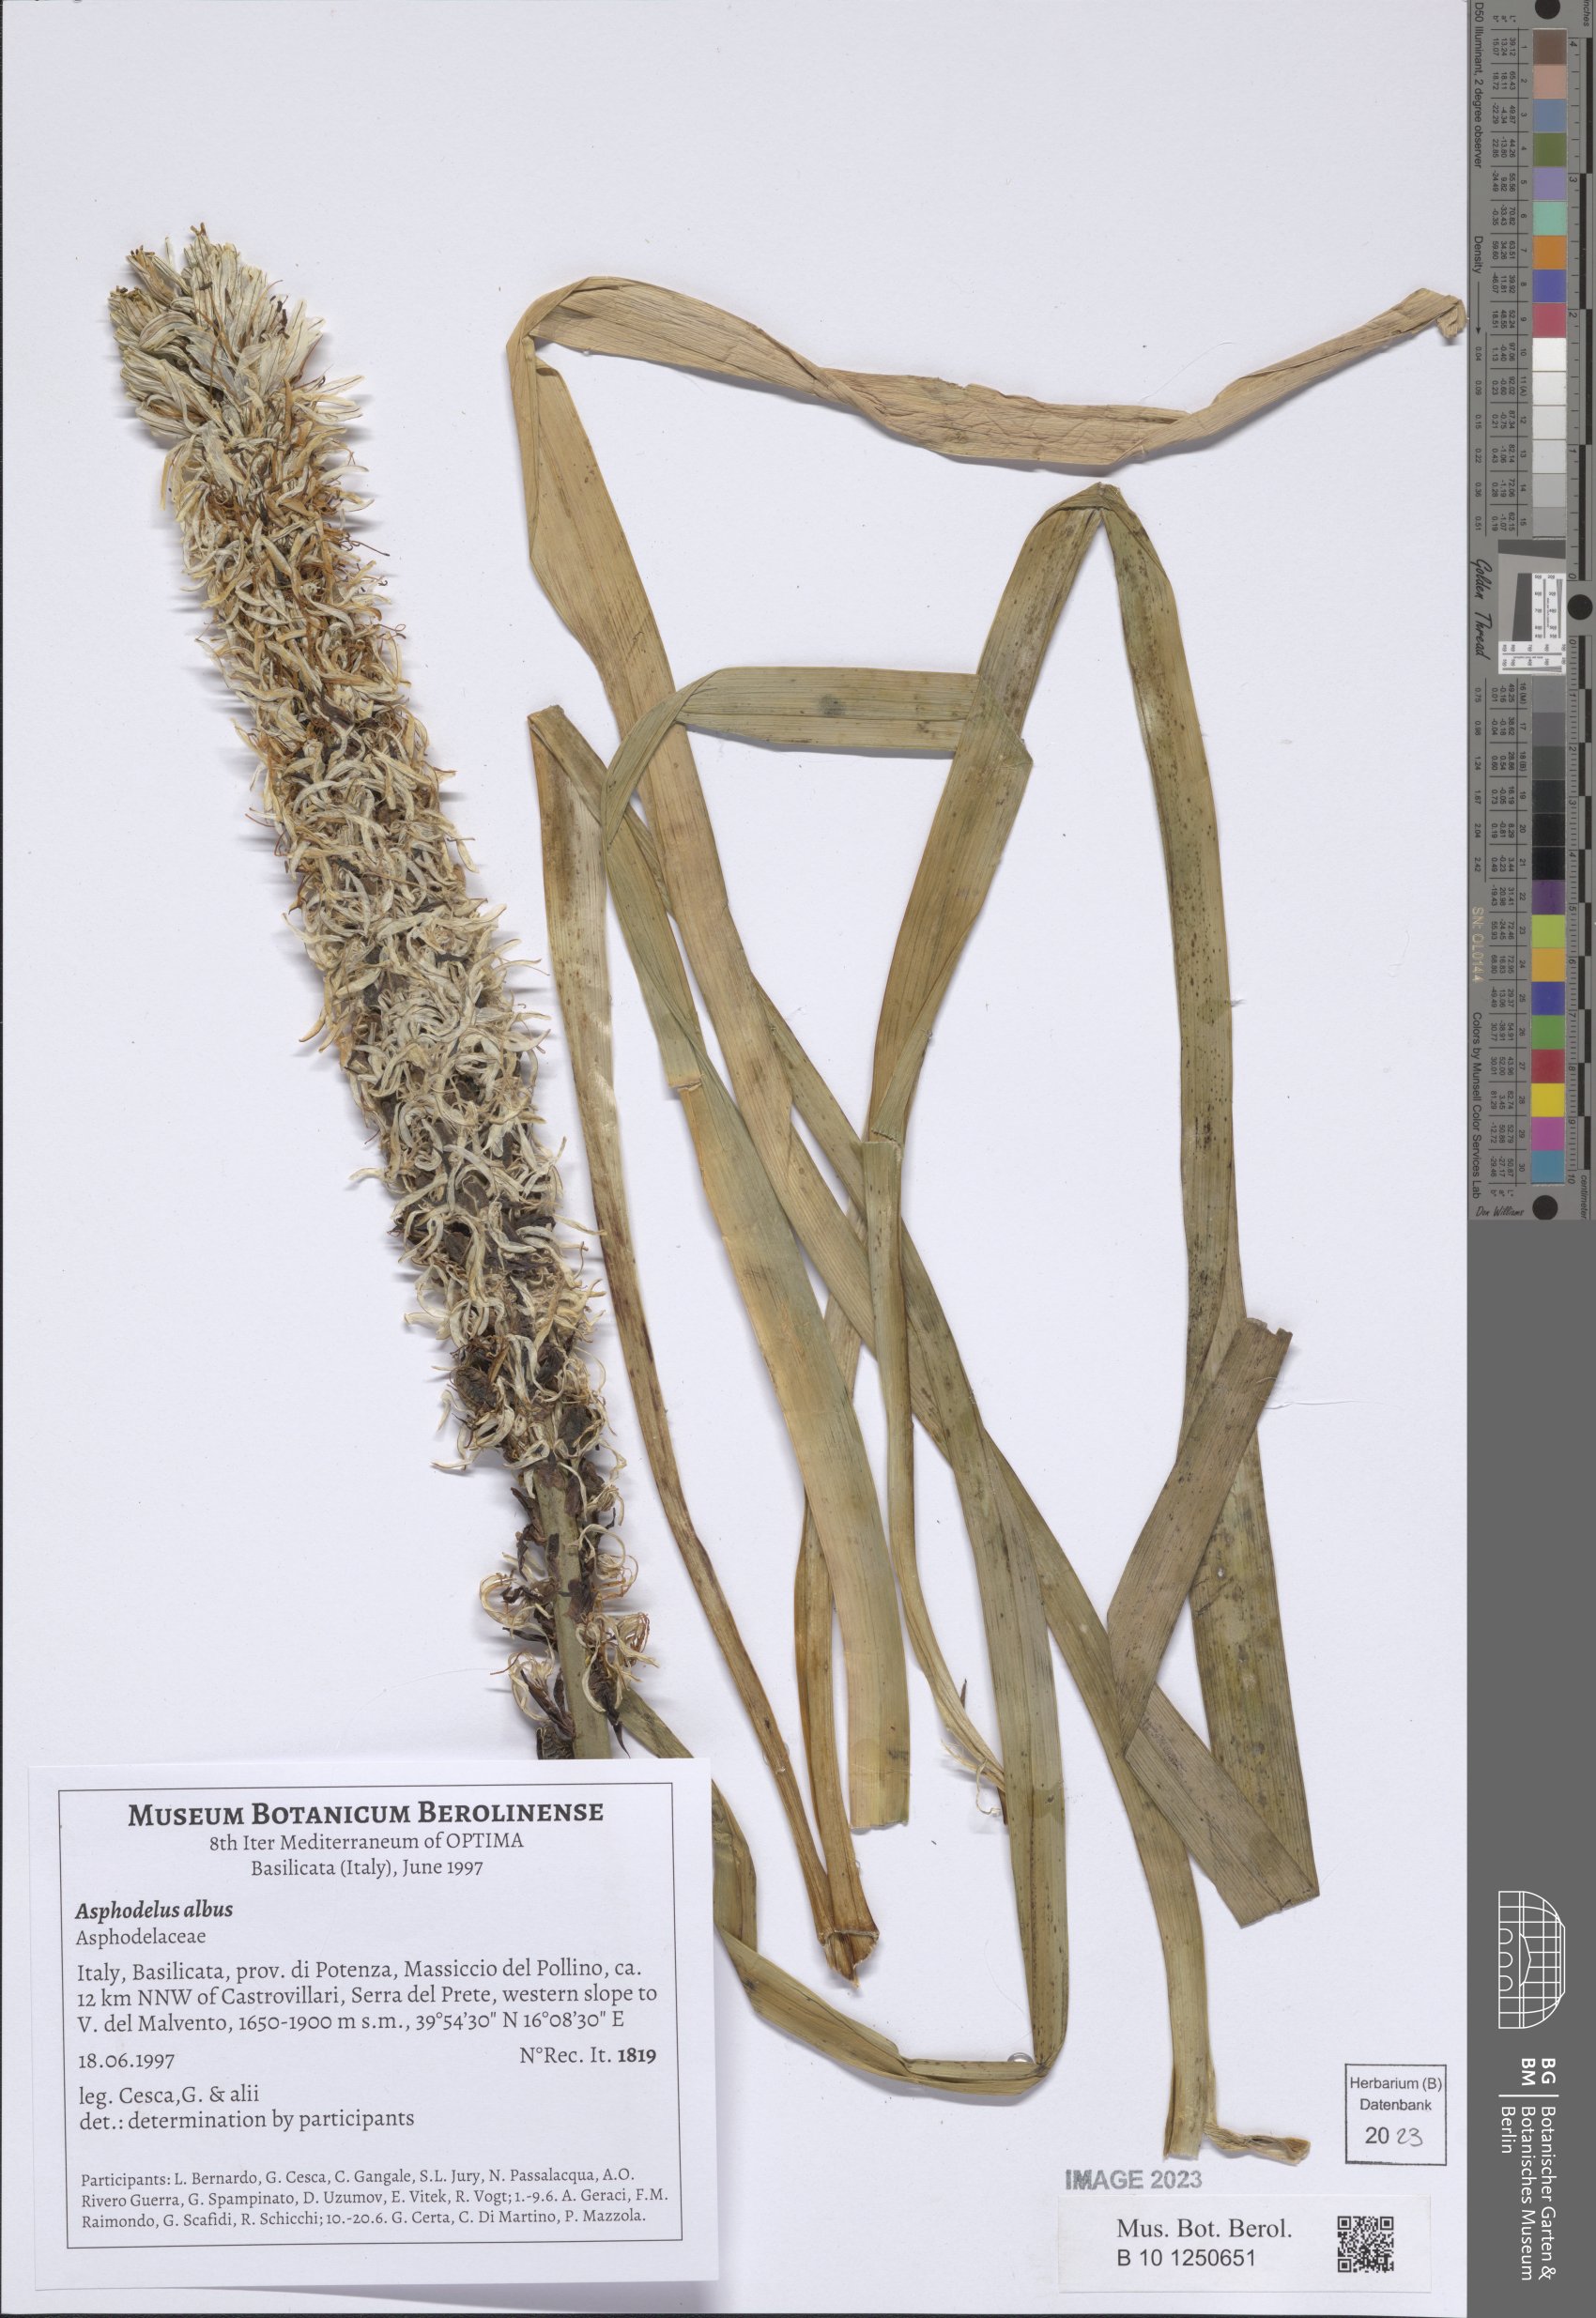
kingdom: Plantae
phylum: Tracheophyta
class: Liliopsida
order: Asparagales
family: Asphodelaceae
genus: Asphodelus
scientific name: Asphodelus albus
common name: White asphodel
